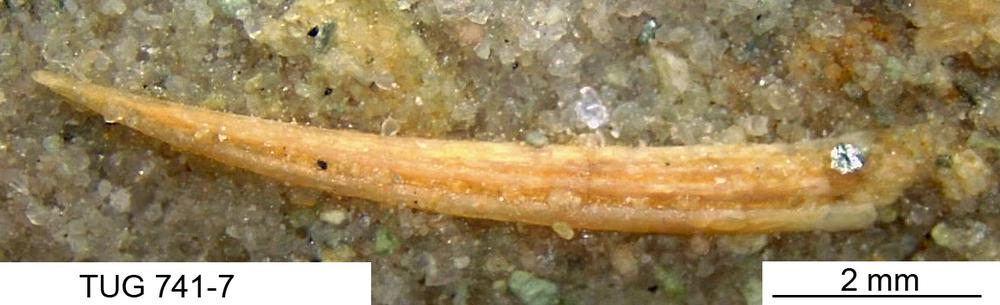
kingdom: Animalia
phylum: Chordata
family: Acanthodidae
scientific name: Acanthodidae
